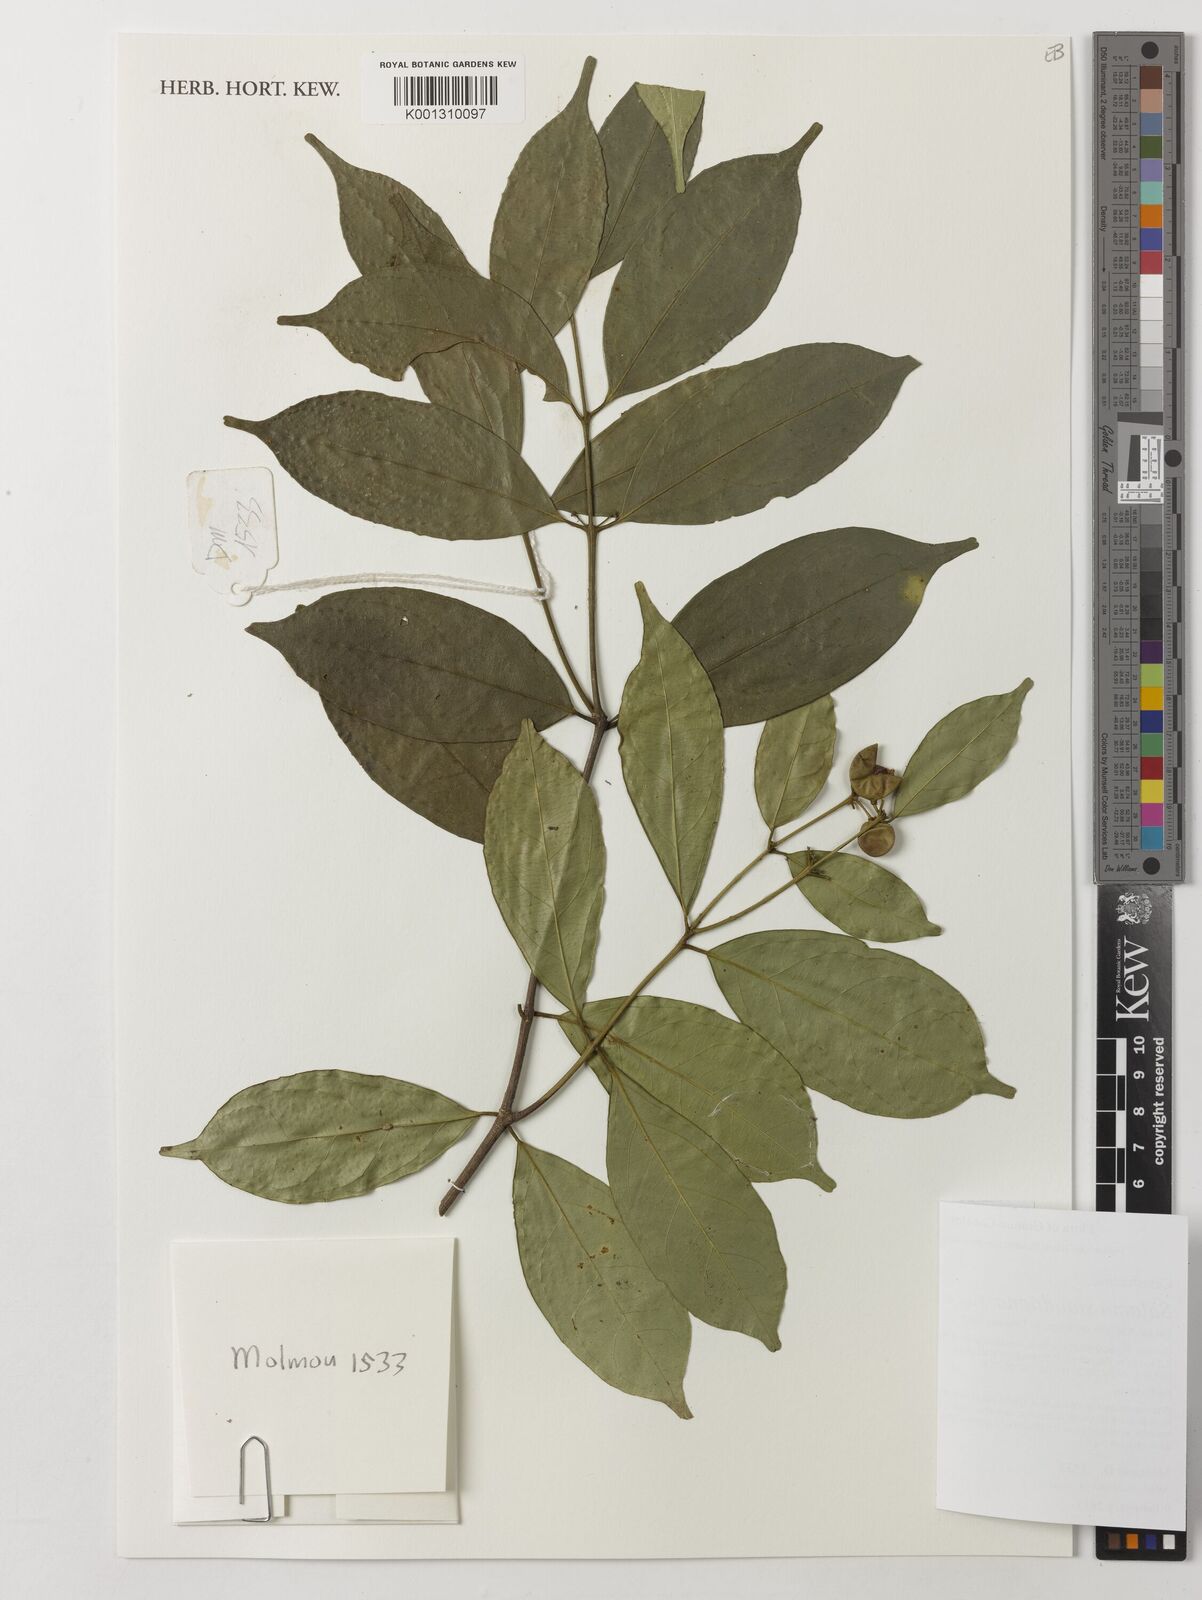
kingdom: Plantae
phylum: Tracheophyta
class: Magnoliopsida
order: Celastrales
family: Celastraceae
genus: Salacia
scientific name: Salacia staudtiana
